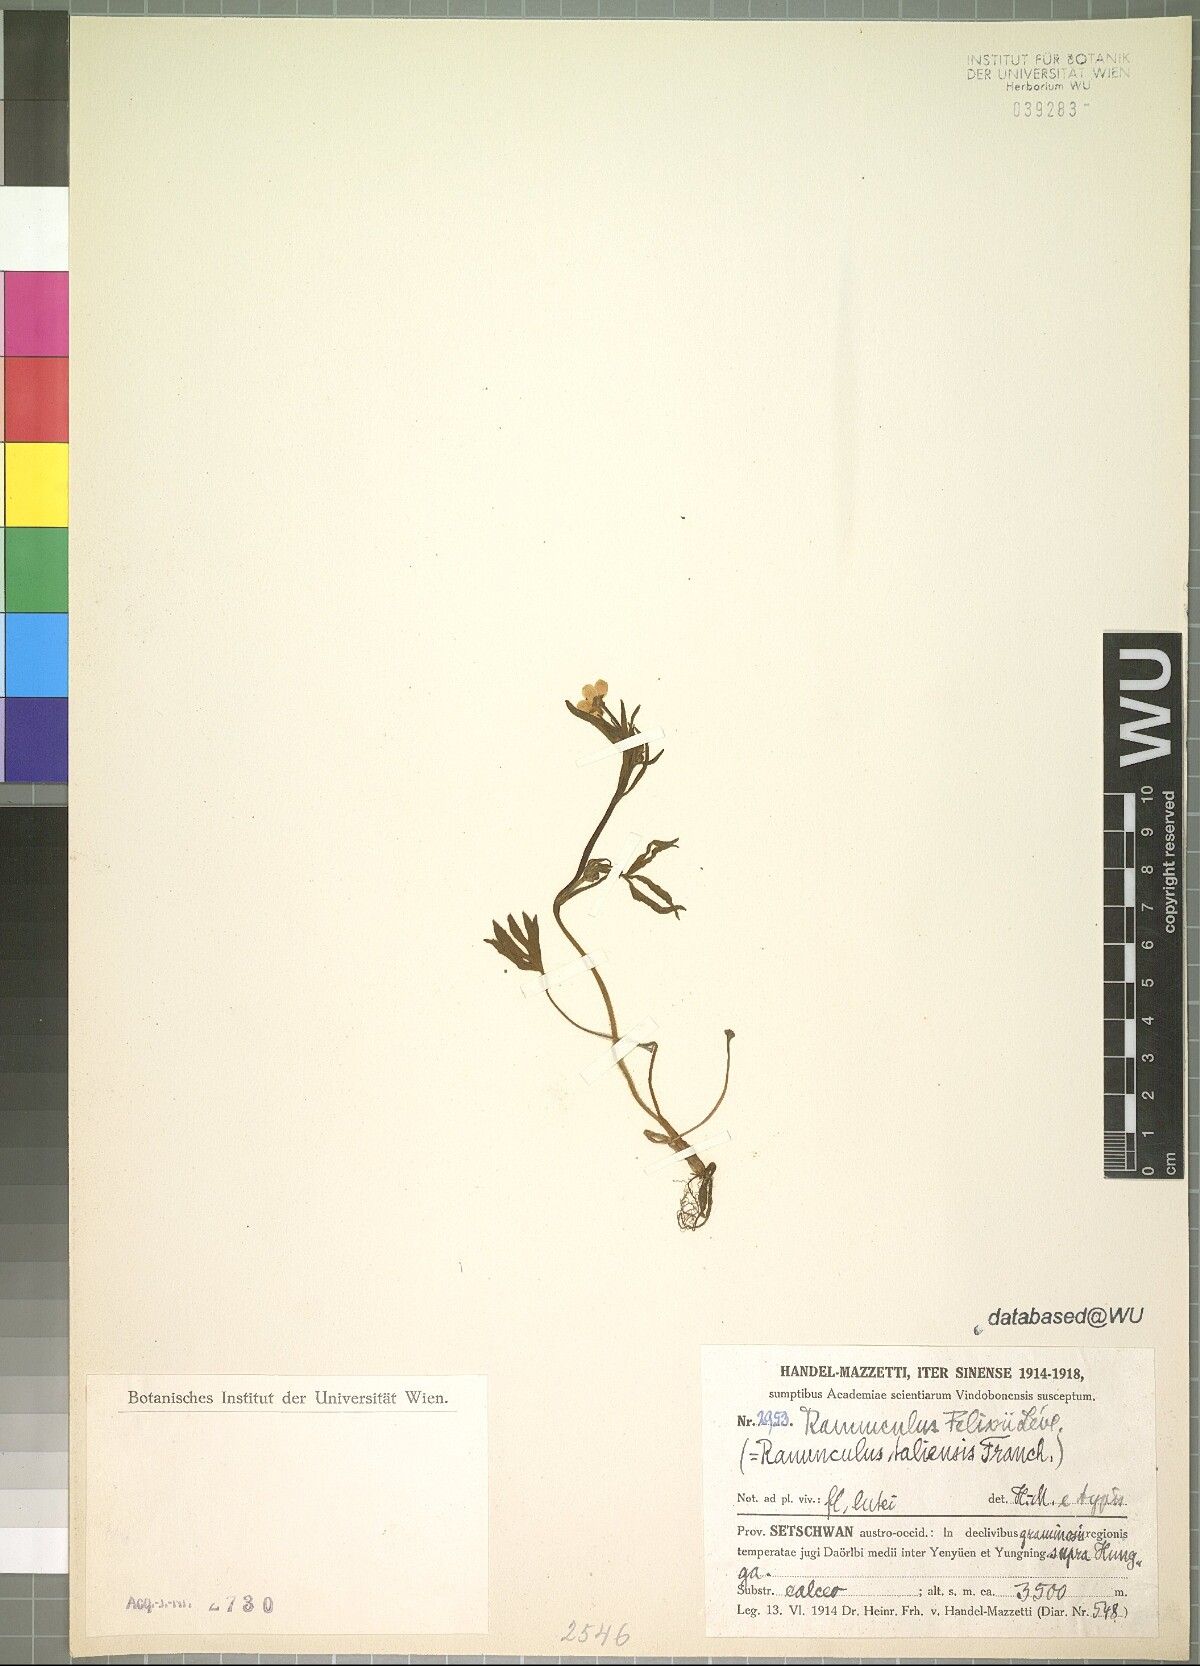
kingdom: Plantae
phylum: Tracheophyta
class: Magnoliopsida
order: Ranunculales
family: Ranunculaceae
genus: Ranunculus
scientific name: Ranunculus felixii
